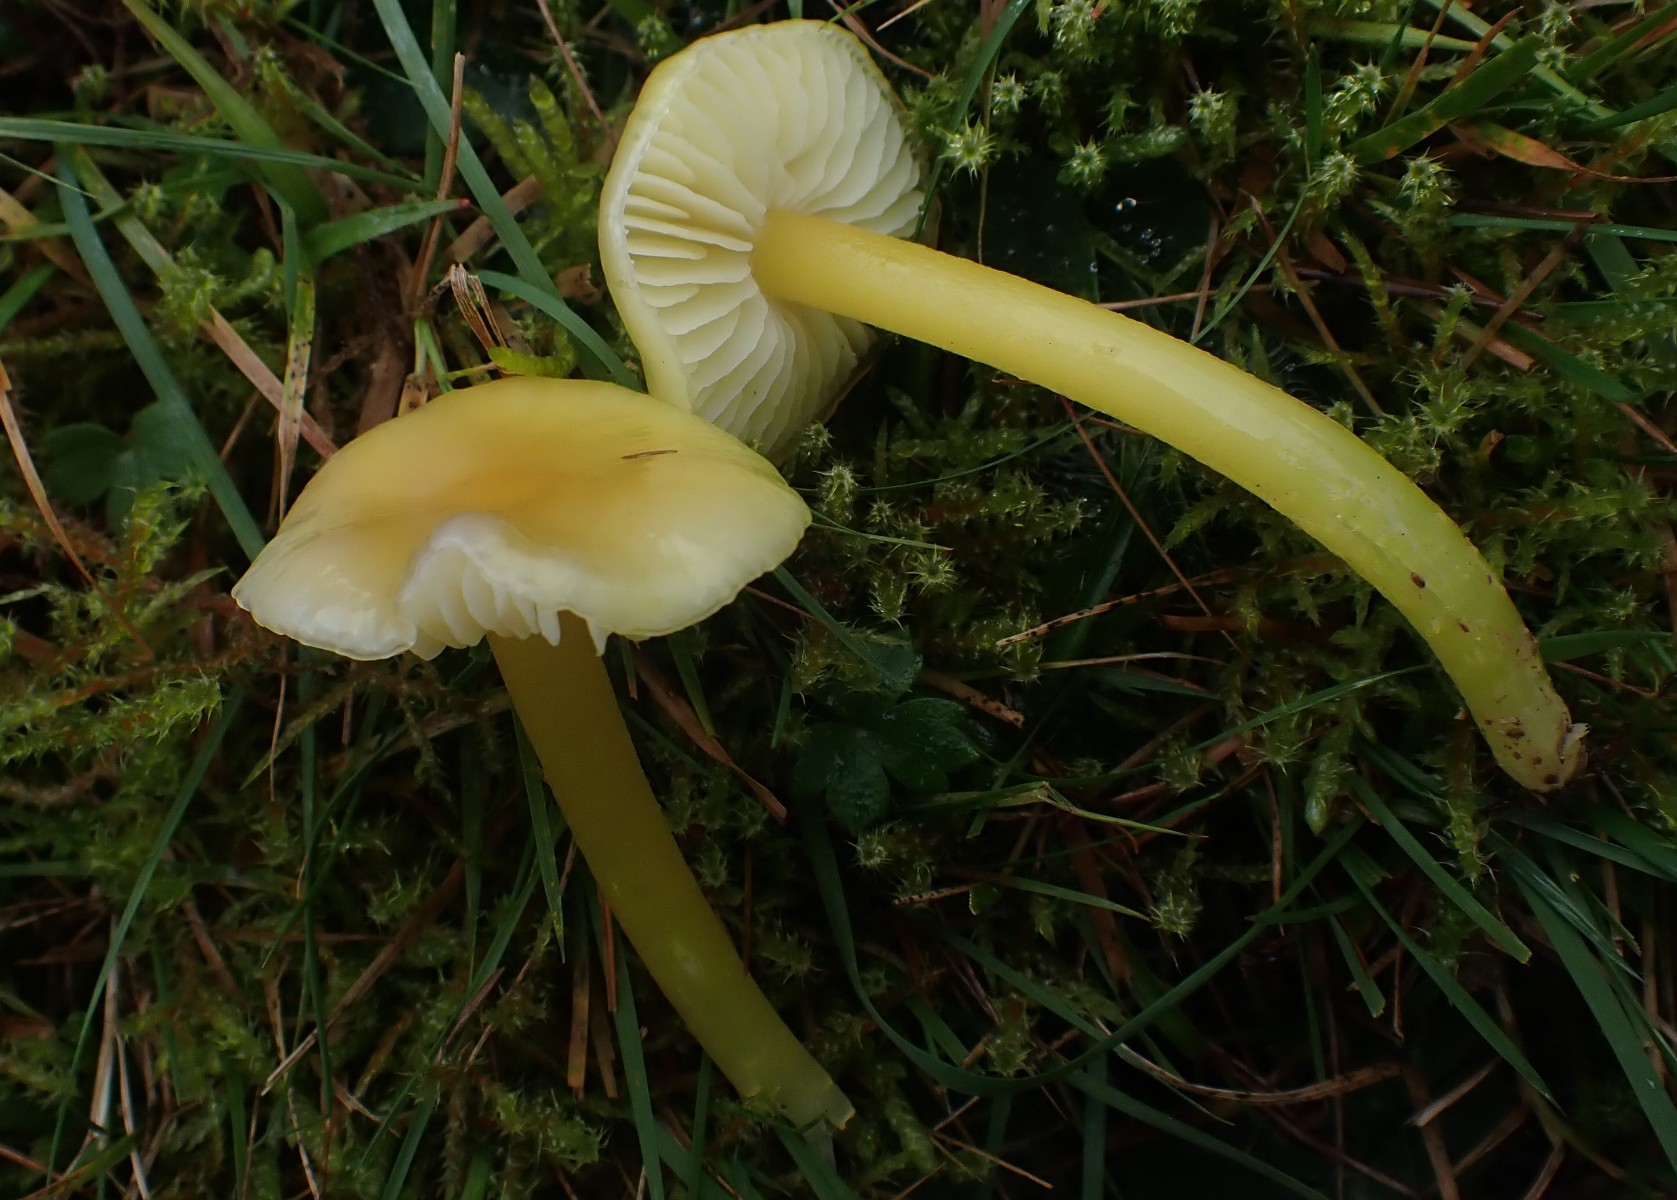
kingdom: Fungi
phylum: Basidiomycota
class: Agaricomycetes
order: Agaricales
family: Hygrophoraceae
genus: Hygrocybe
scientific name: Hygrocybe chlorophana
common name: gul vokshat
